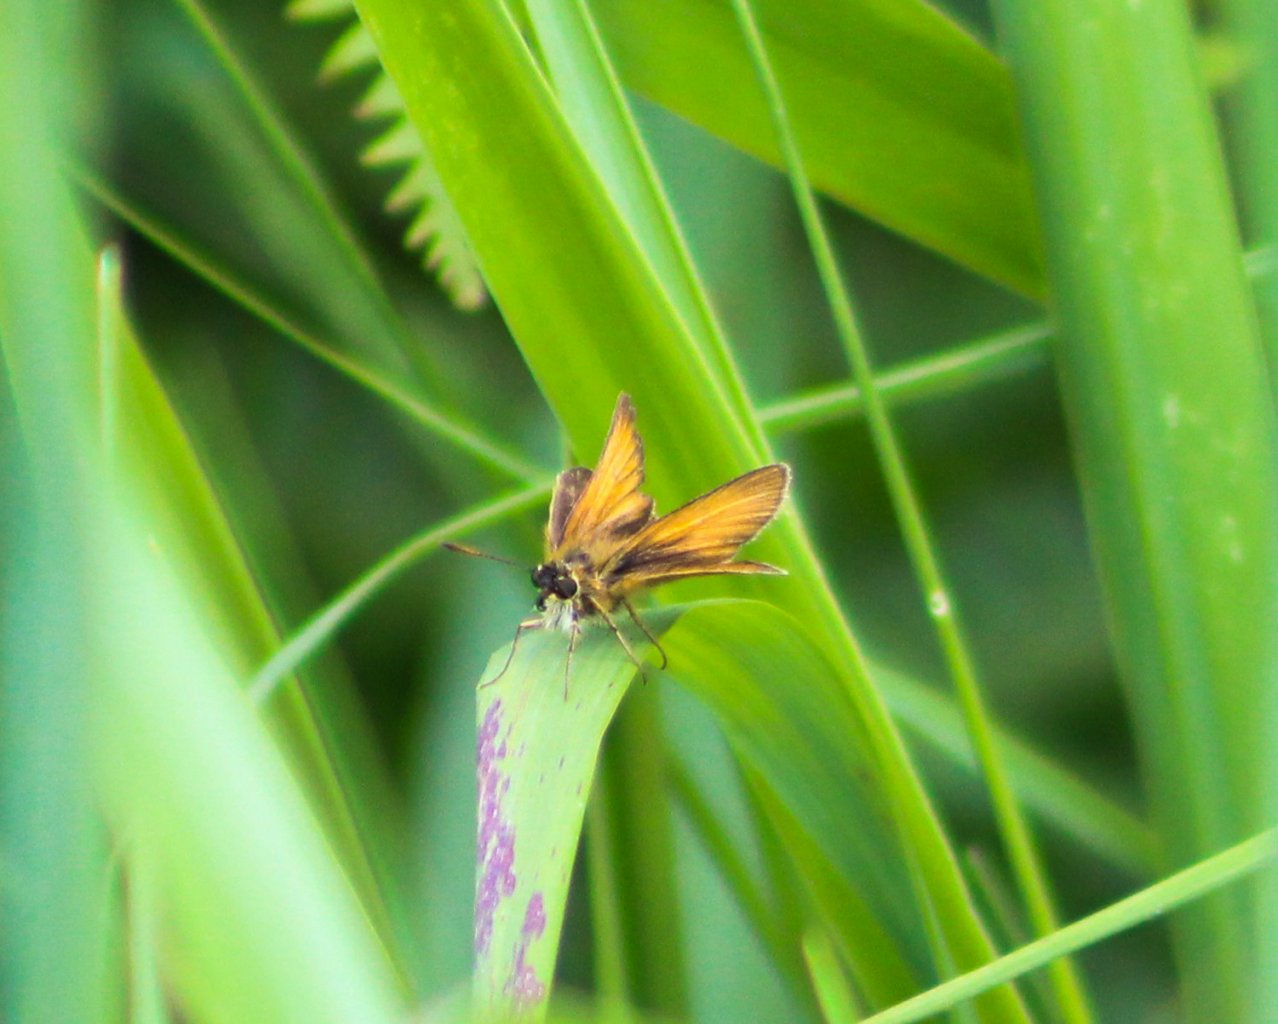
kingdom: Animalia
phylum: Arthropoda
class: Insecta
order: Lepidoptera
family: Hesperiidae
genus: Thymelicus
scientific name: Thymelicus lineola
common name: European Skipper
